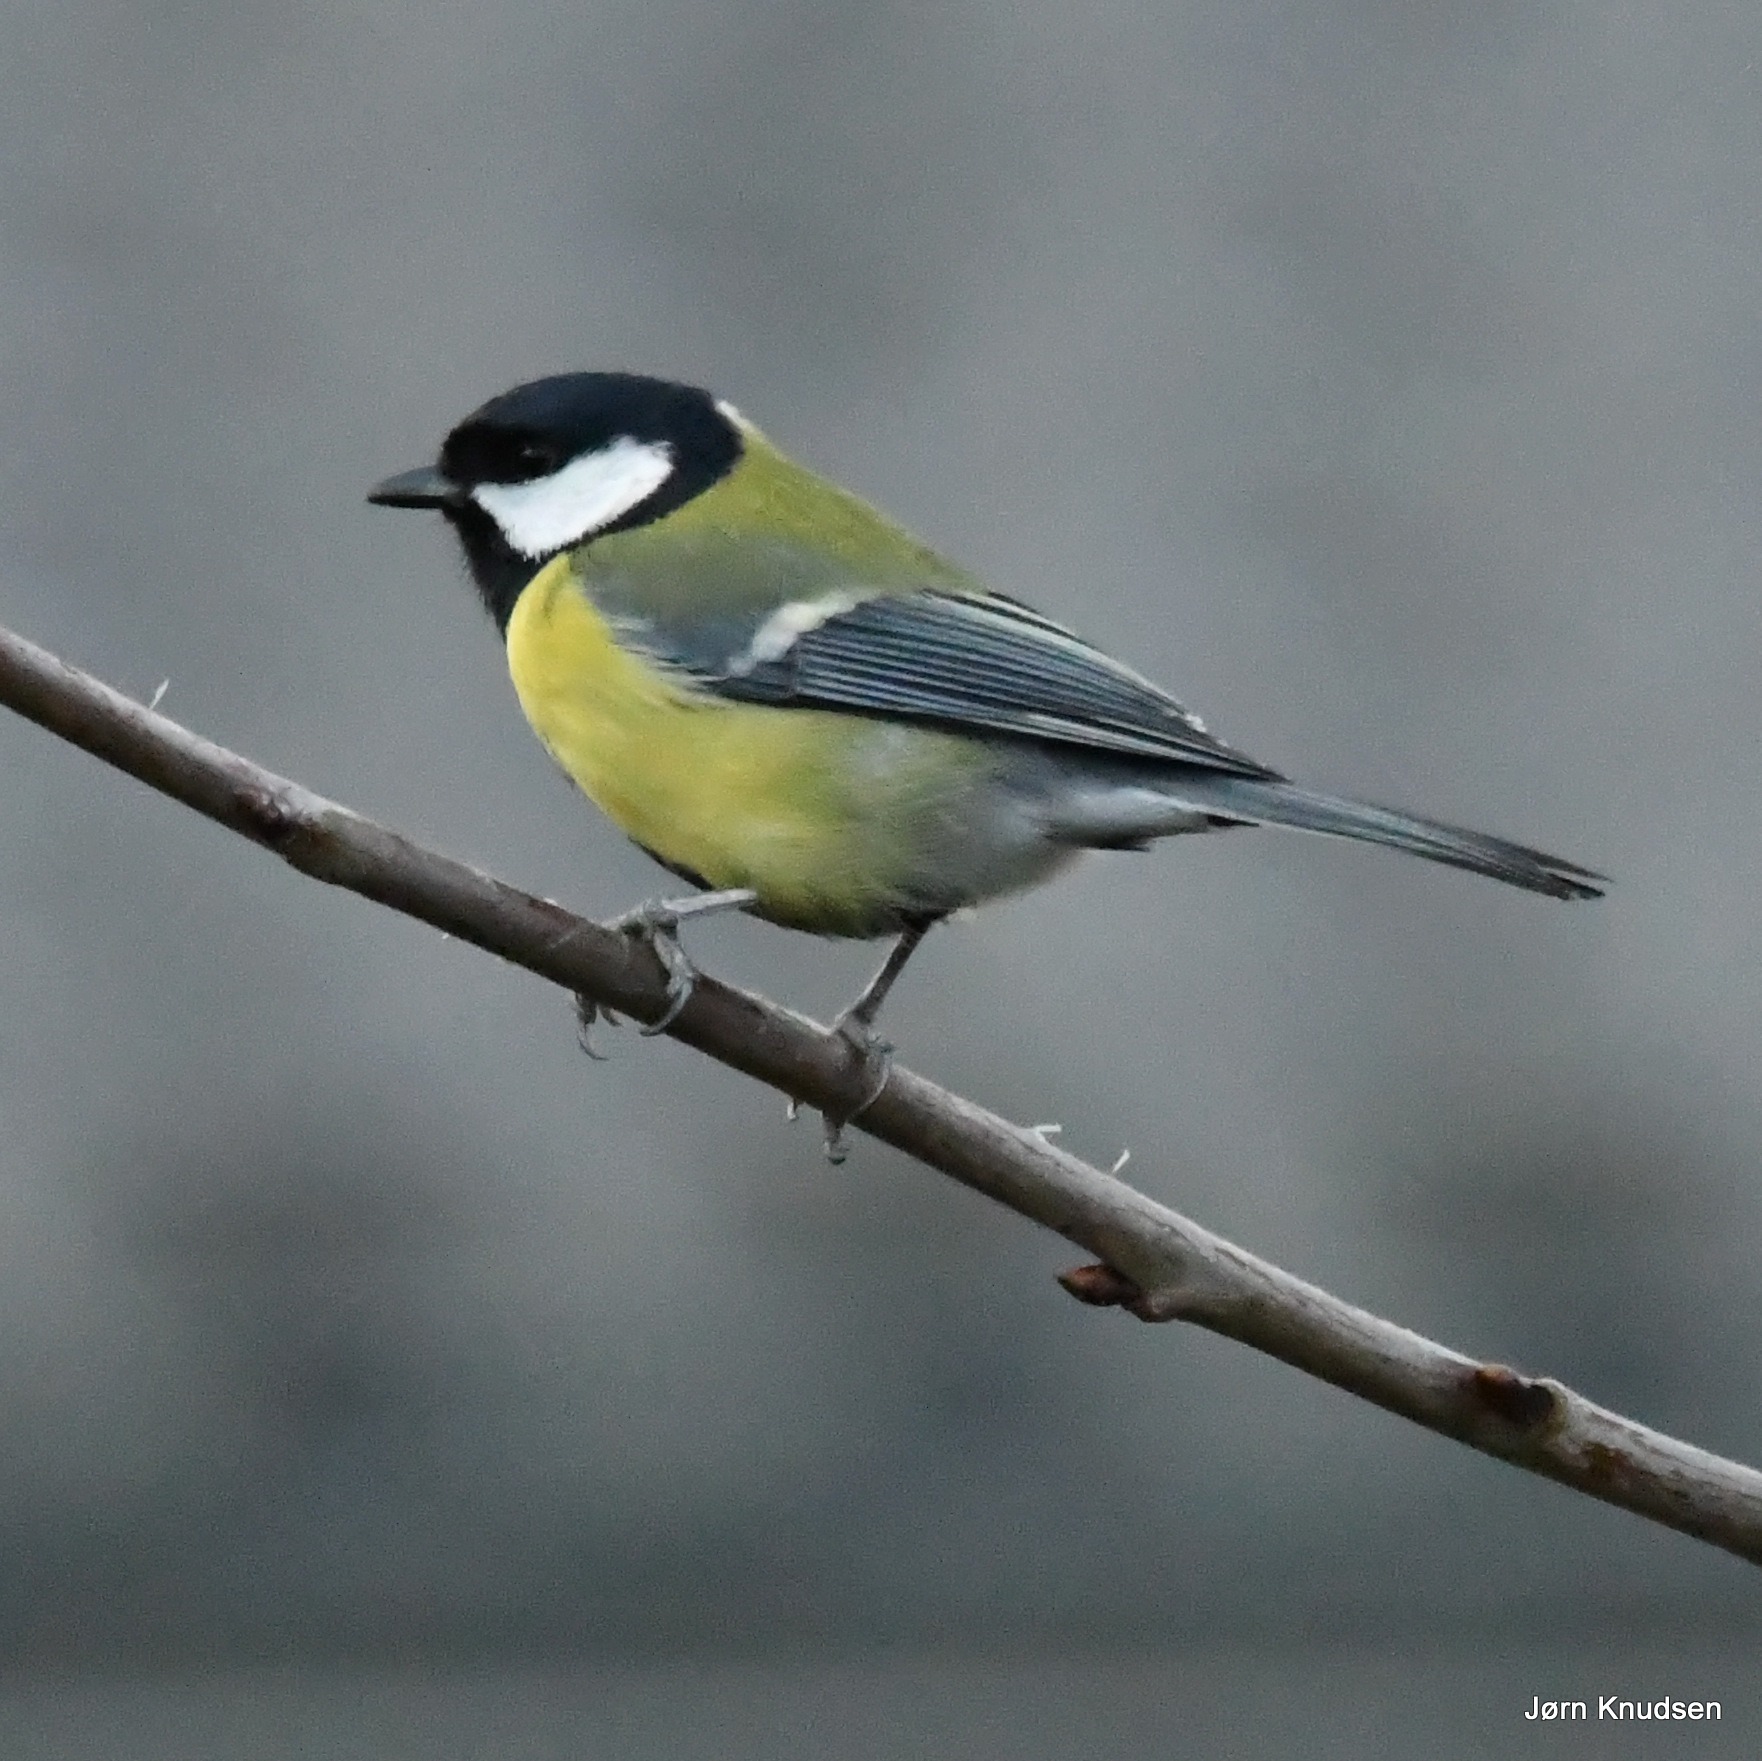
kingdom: Animalia
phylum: Chordata
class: Aves
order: Passeriformes
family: Paridae
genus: Parus
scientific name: Parus major
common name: Musvit
